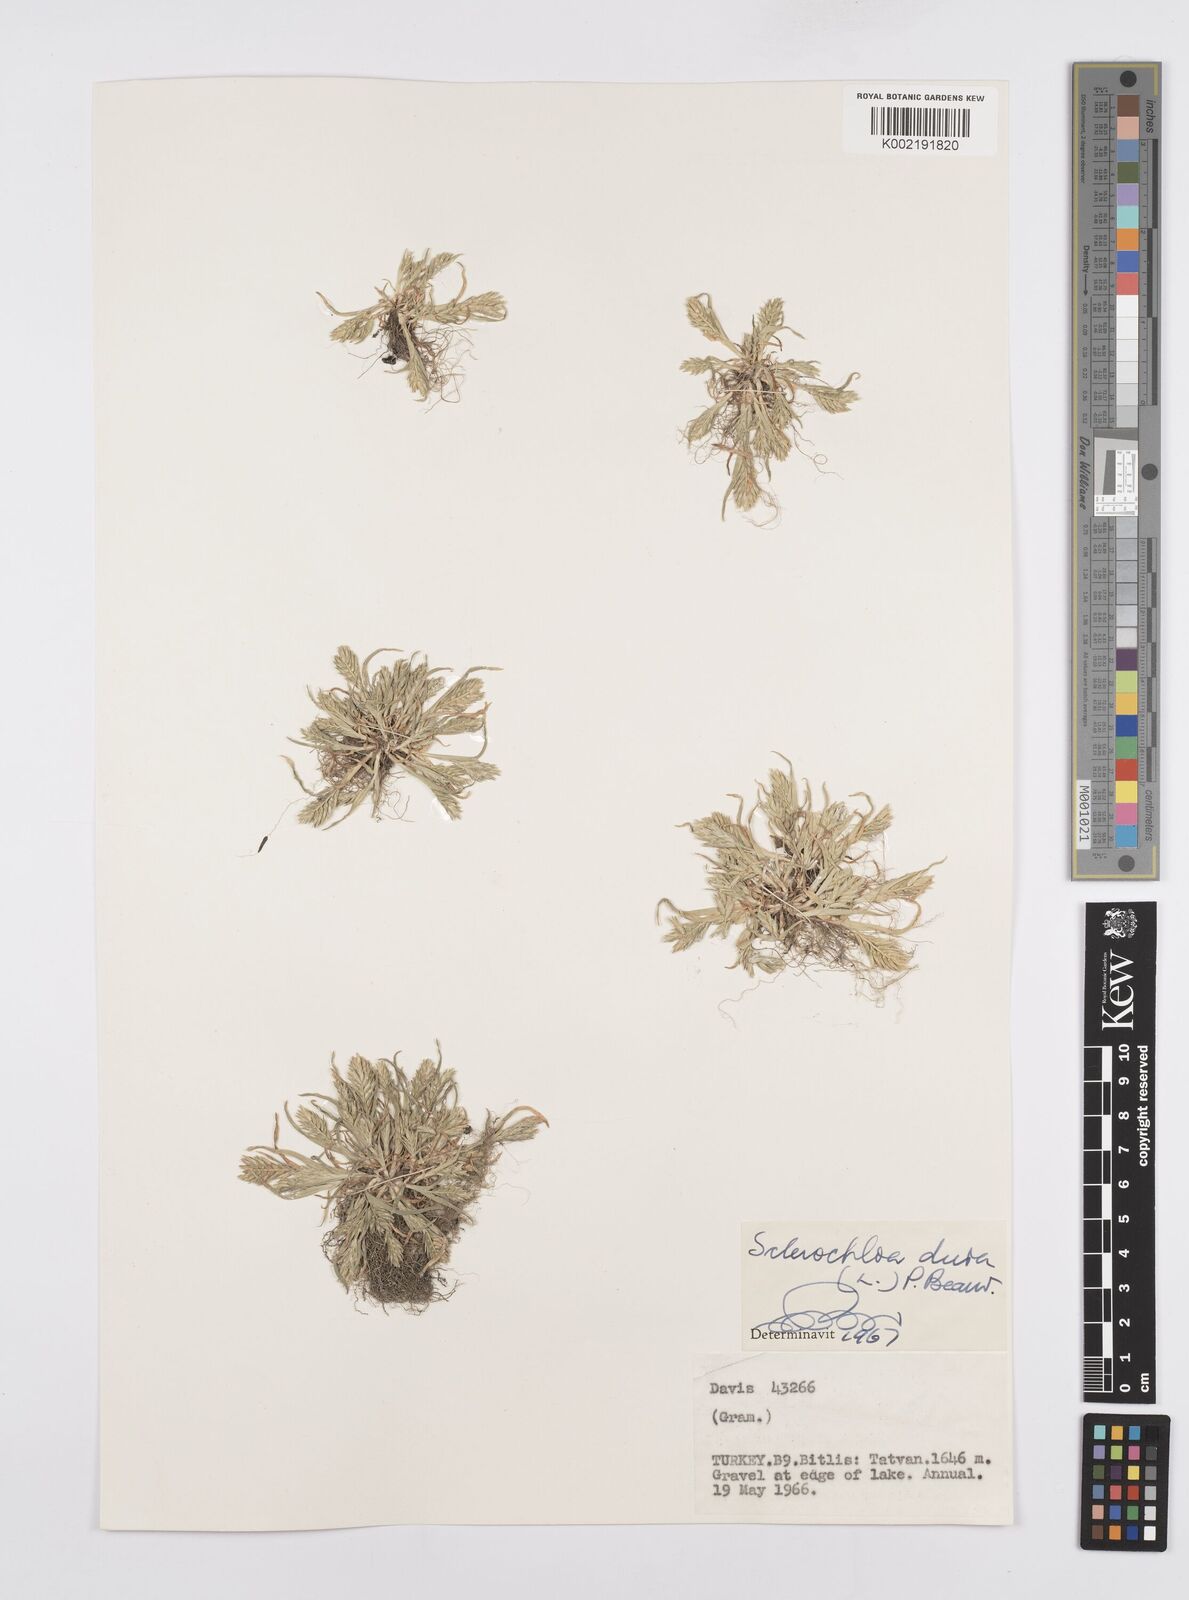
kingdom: Plantae
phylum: Tracheophyta
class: Liliopsida
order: Poales
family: Poaceae
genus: Sclerochloa
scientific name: Sclerochloa dura
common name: Common hardgrass
